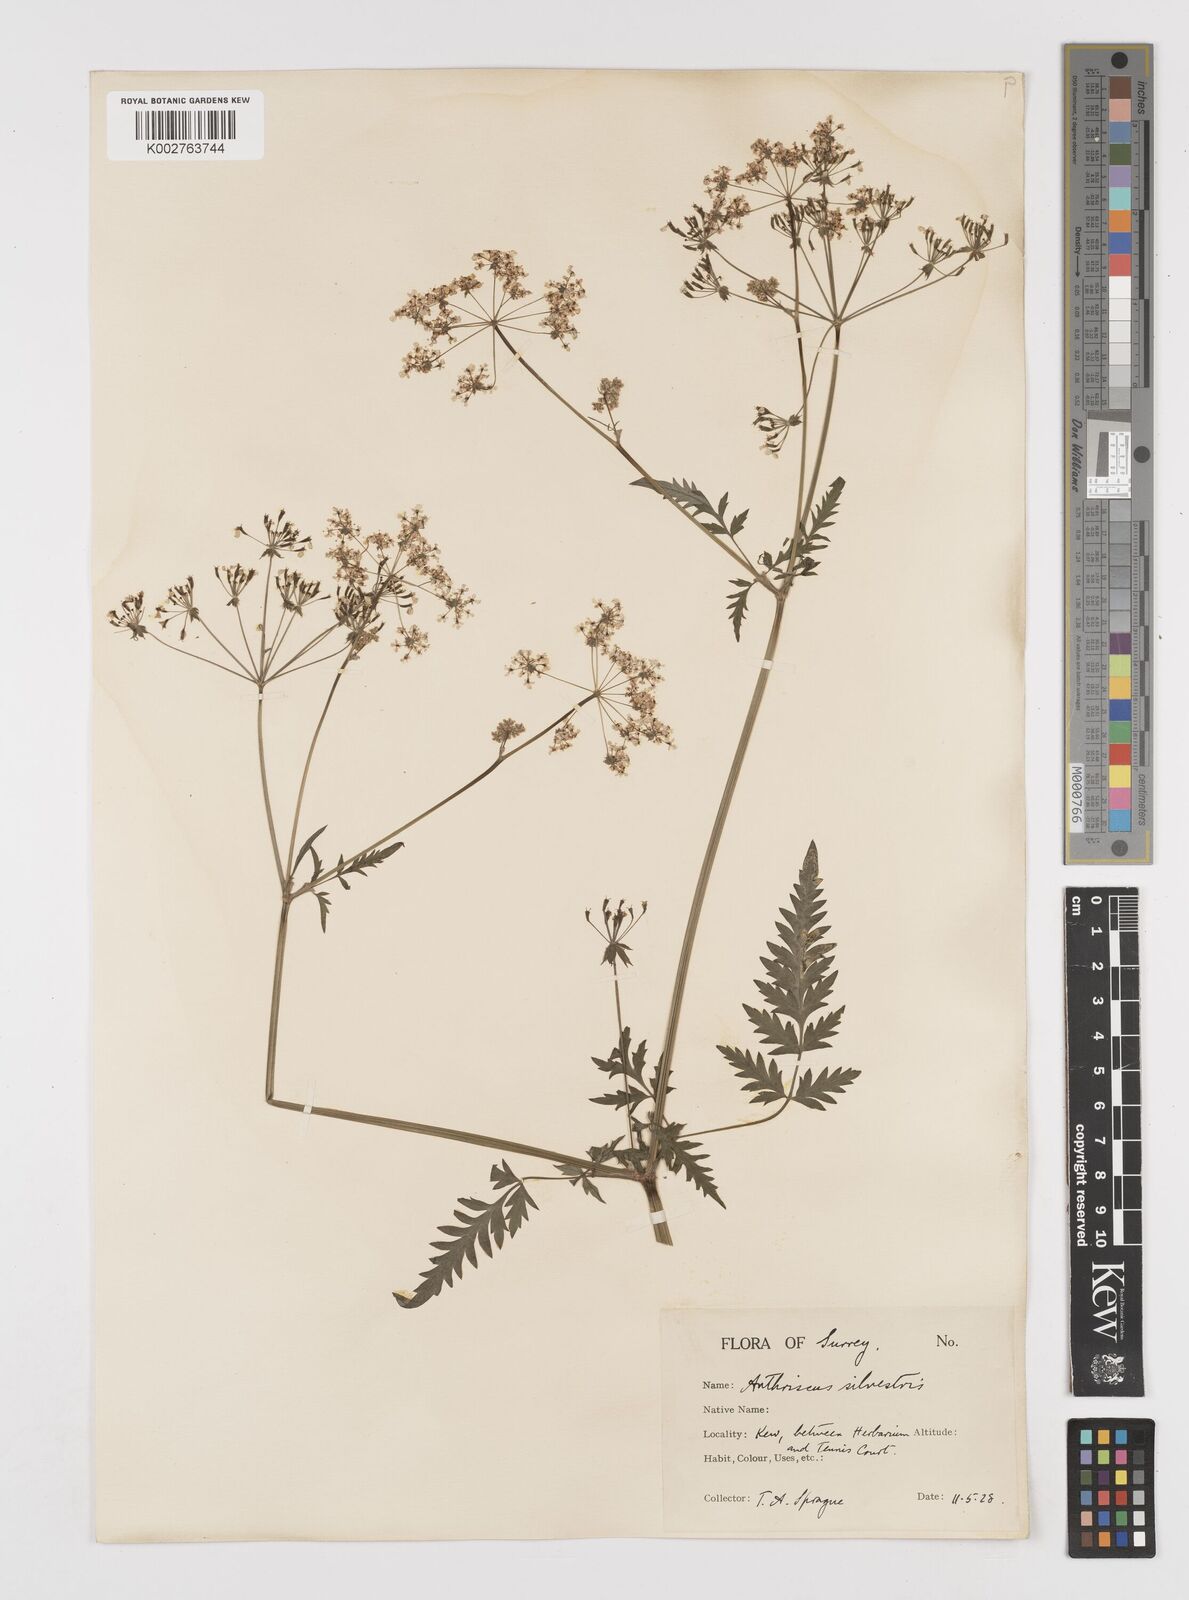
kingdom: Plantae
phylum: Tracheophyta
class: Magnoliopsida
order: Apiales
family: Apiaceae
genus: Anthriscus
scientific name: Anthriscus sylvestris
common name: Cow parsley
